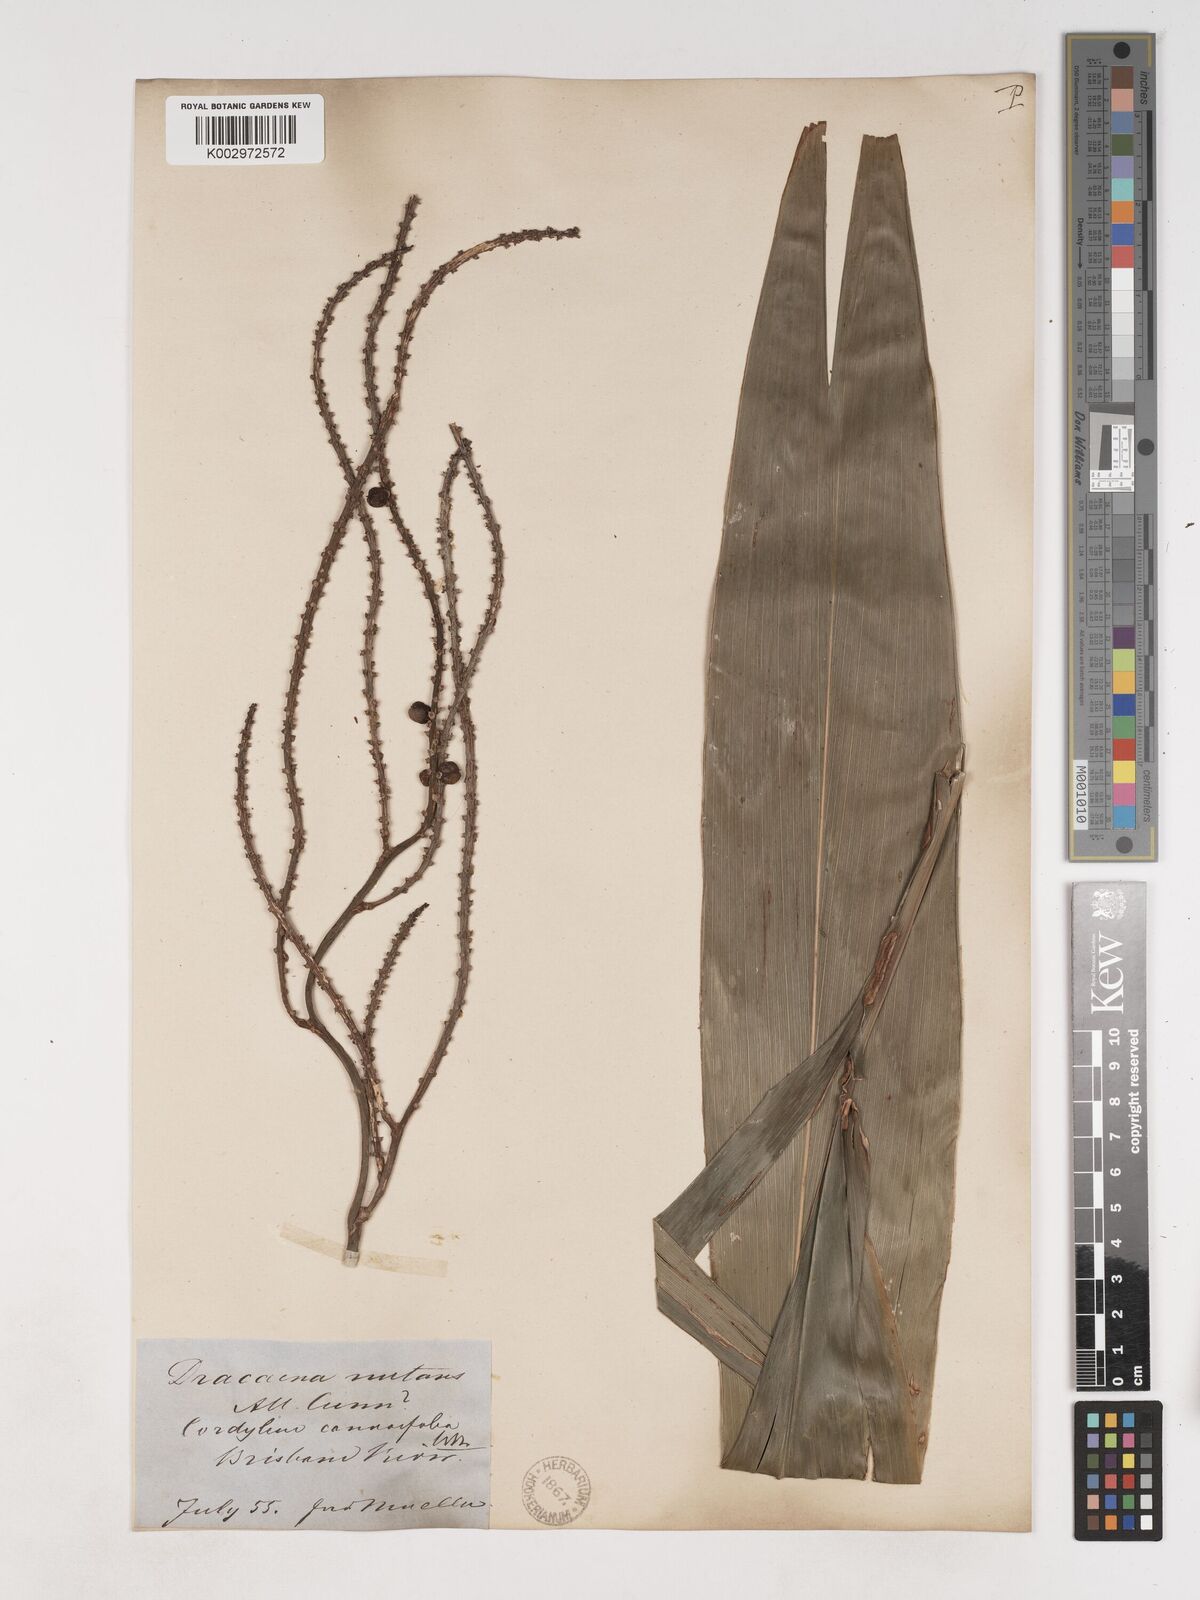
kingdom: Plantae
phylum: Tracheophyta
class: Liliopsida
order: Asparagales
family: Asparagaceae
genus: Cordyline
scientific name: Cordyline fruticosa
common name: Good-luck-plant
